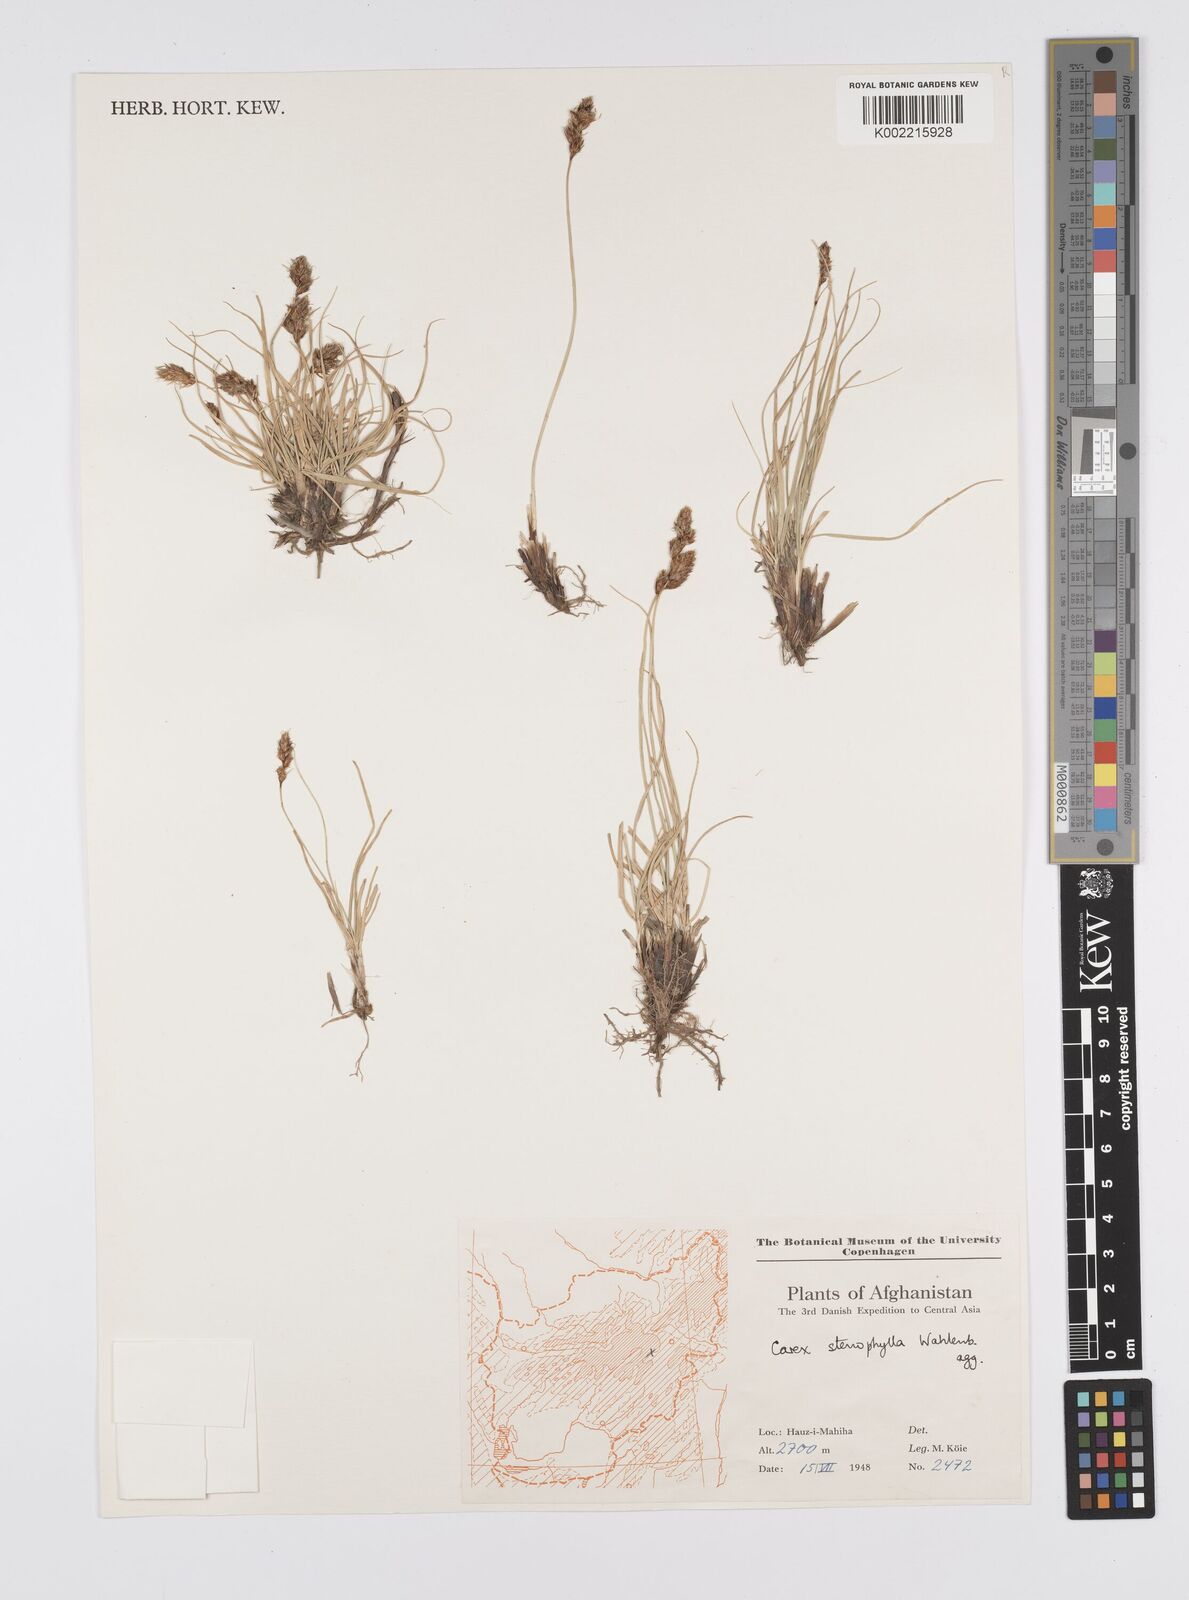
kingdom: Plantae
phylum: Tracheophyta
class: Liliopsida
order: Poales
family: Cyperaceae
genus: Carex
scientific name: Carex stenophylla
